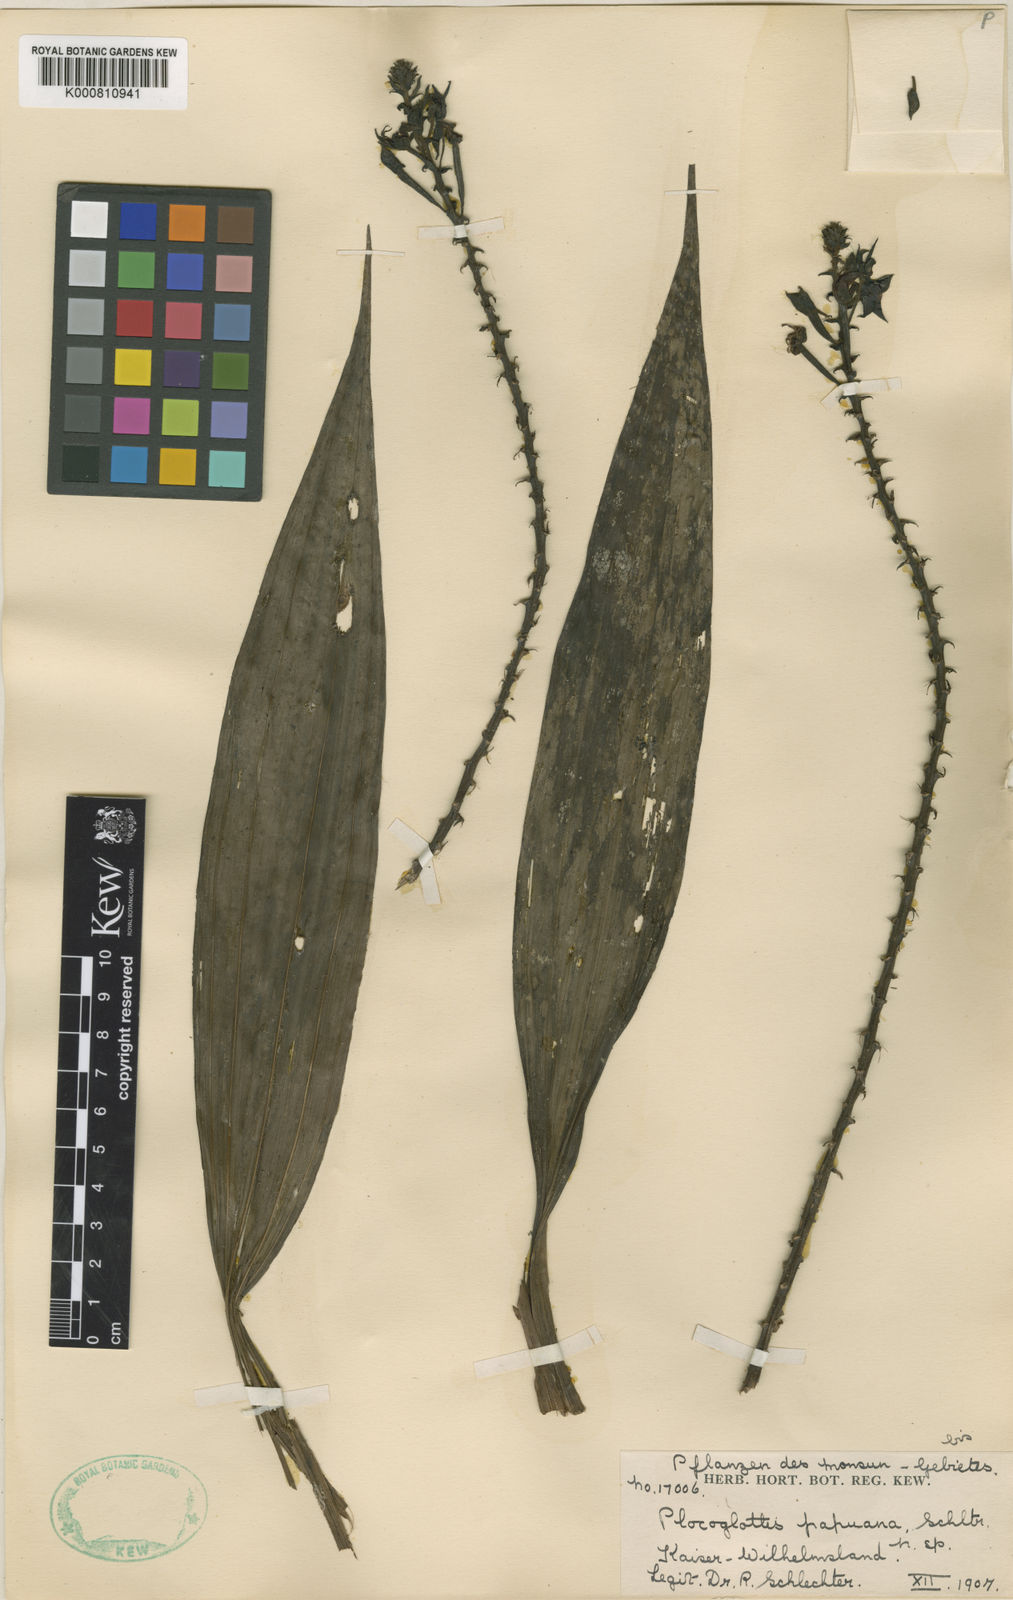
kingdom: Plantae
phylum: Tracheophyta
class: Liliopsida
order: Asparagales
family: Orchidaceae
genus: Plocoglottis
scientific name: Plocoglottis kaniensis
